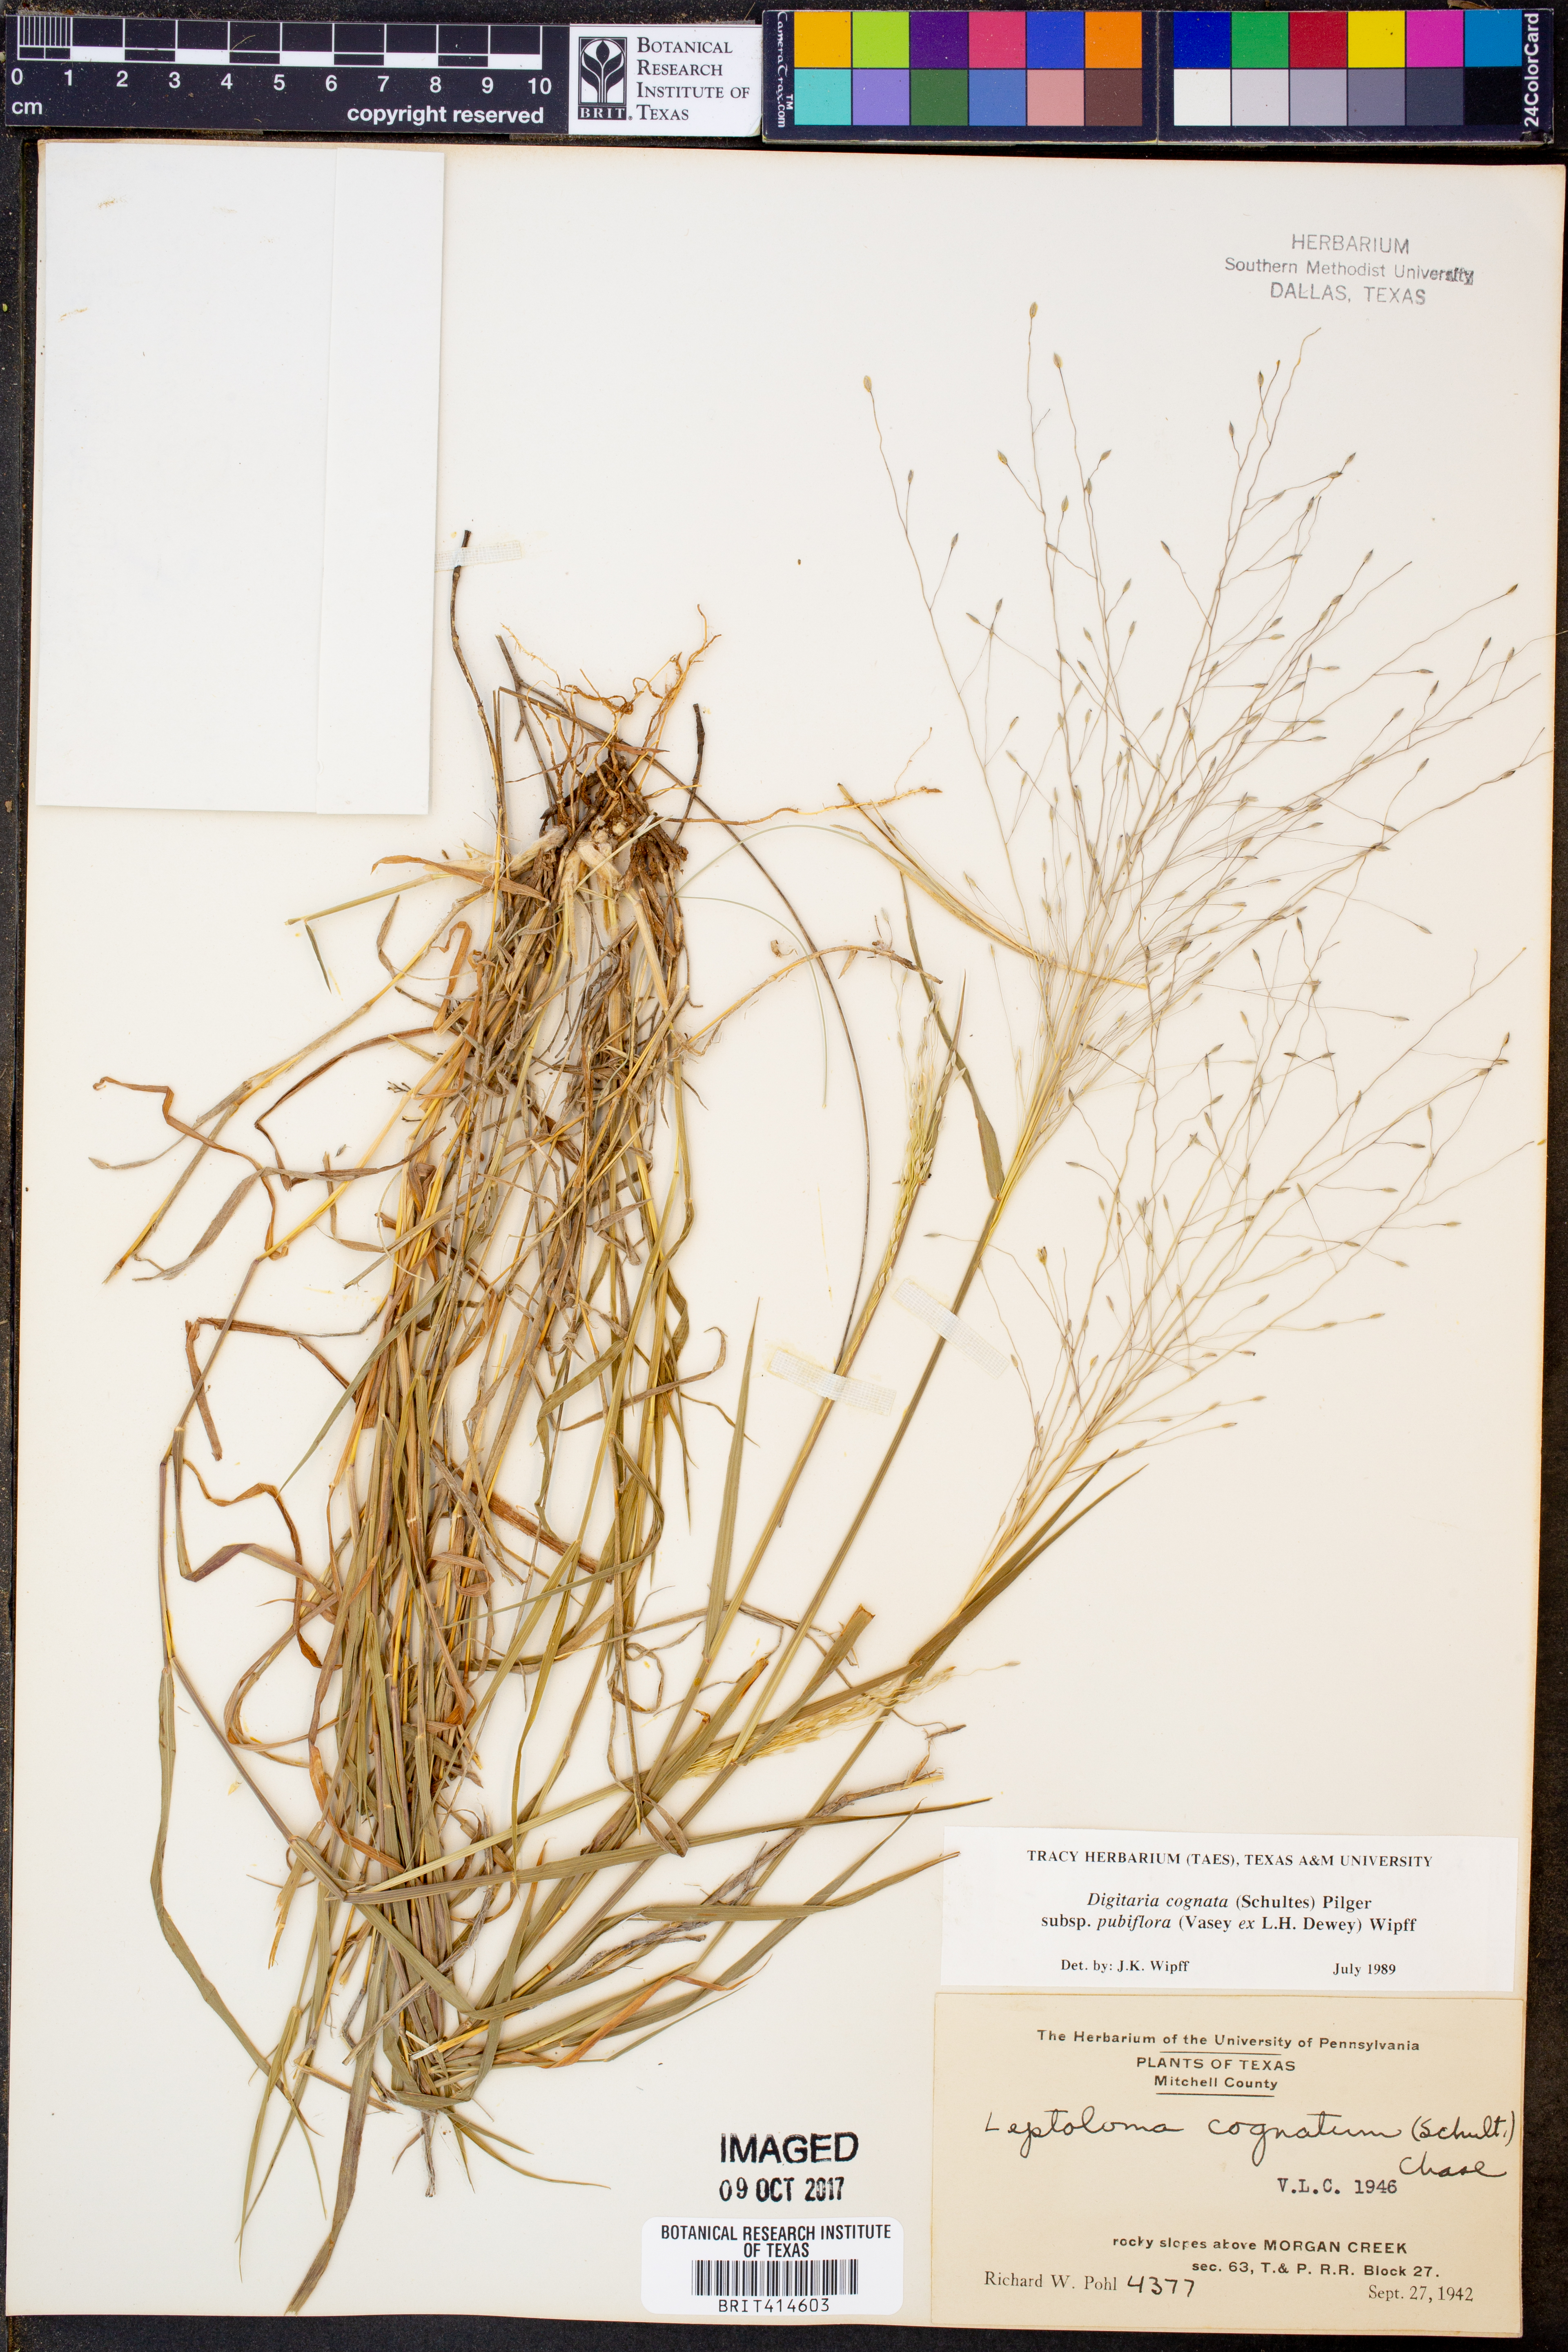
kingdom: Plantae
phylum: Tracheophyta
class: Liliopsida
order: Poales
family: Poaceae
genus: Digitaria
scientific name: Digitaria cognata
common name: Fall witchgrass
